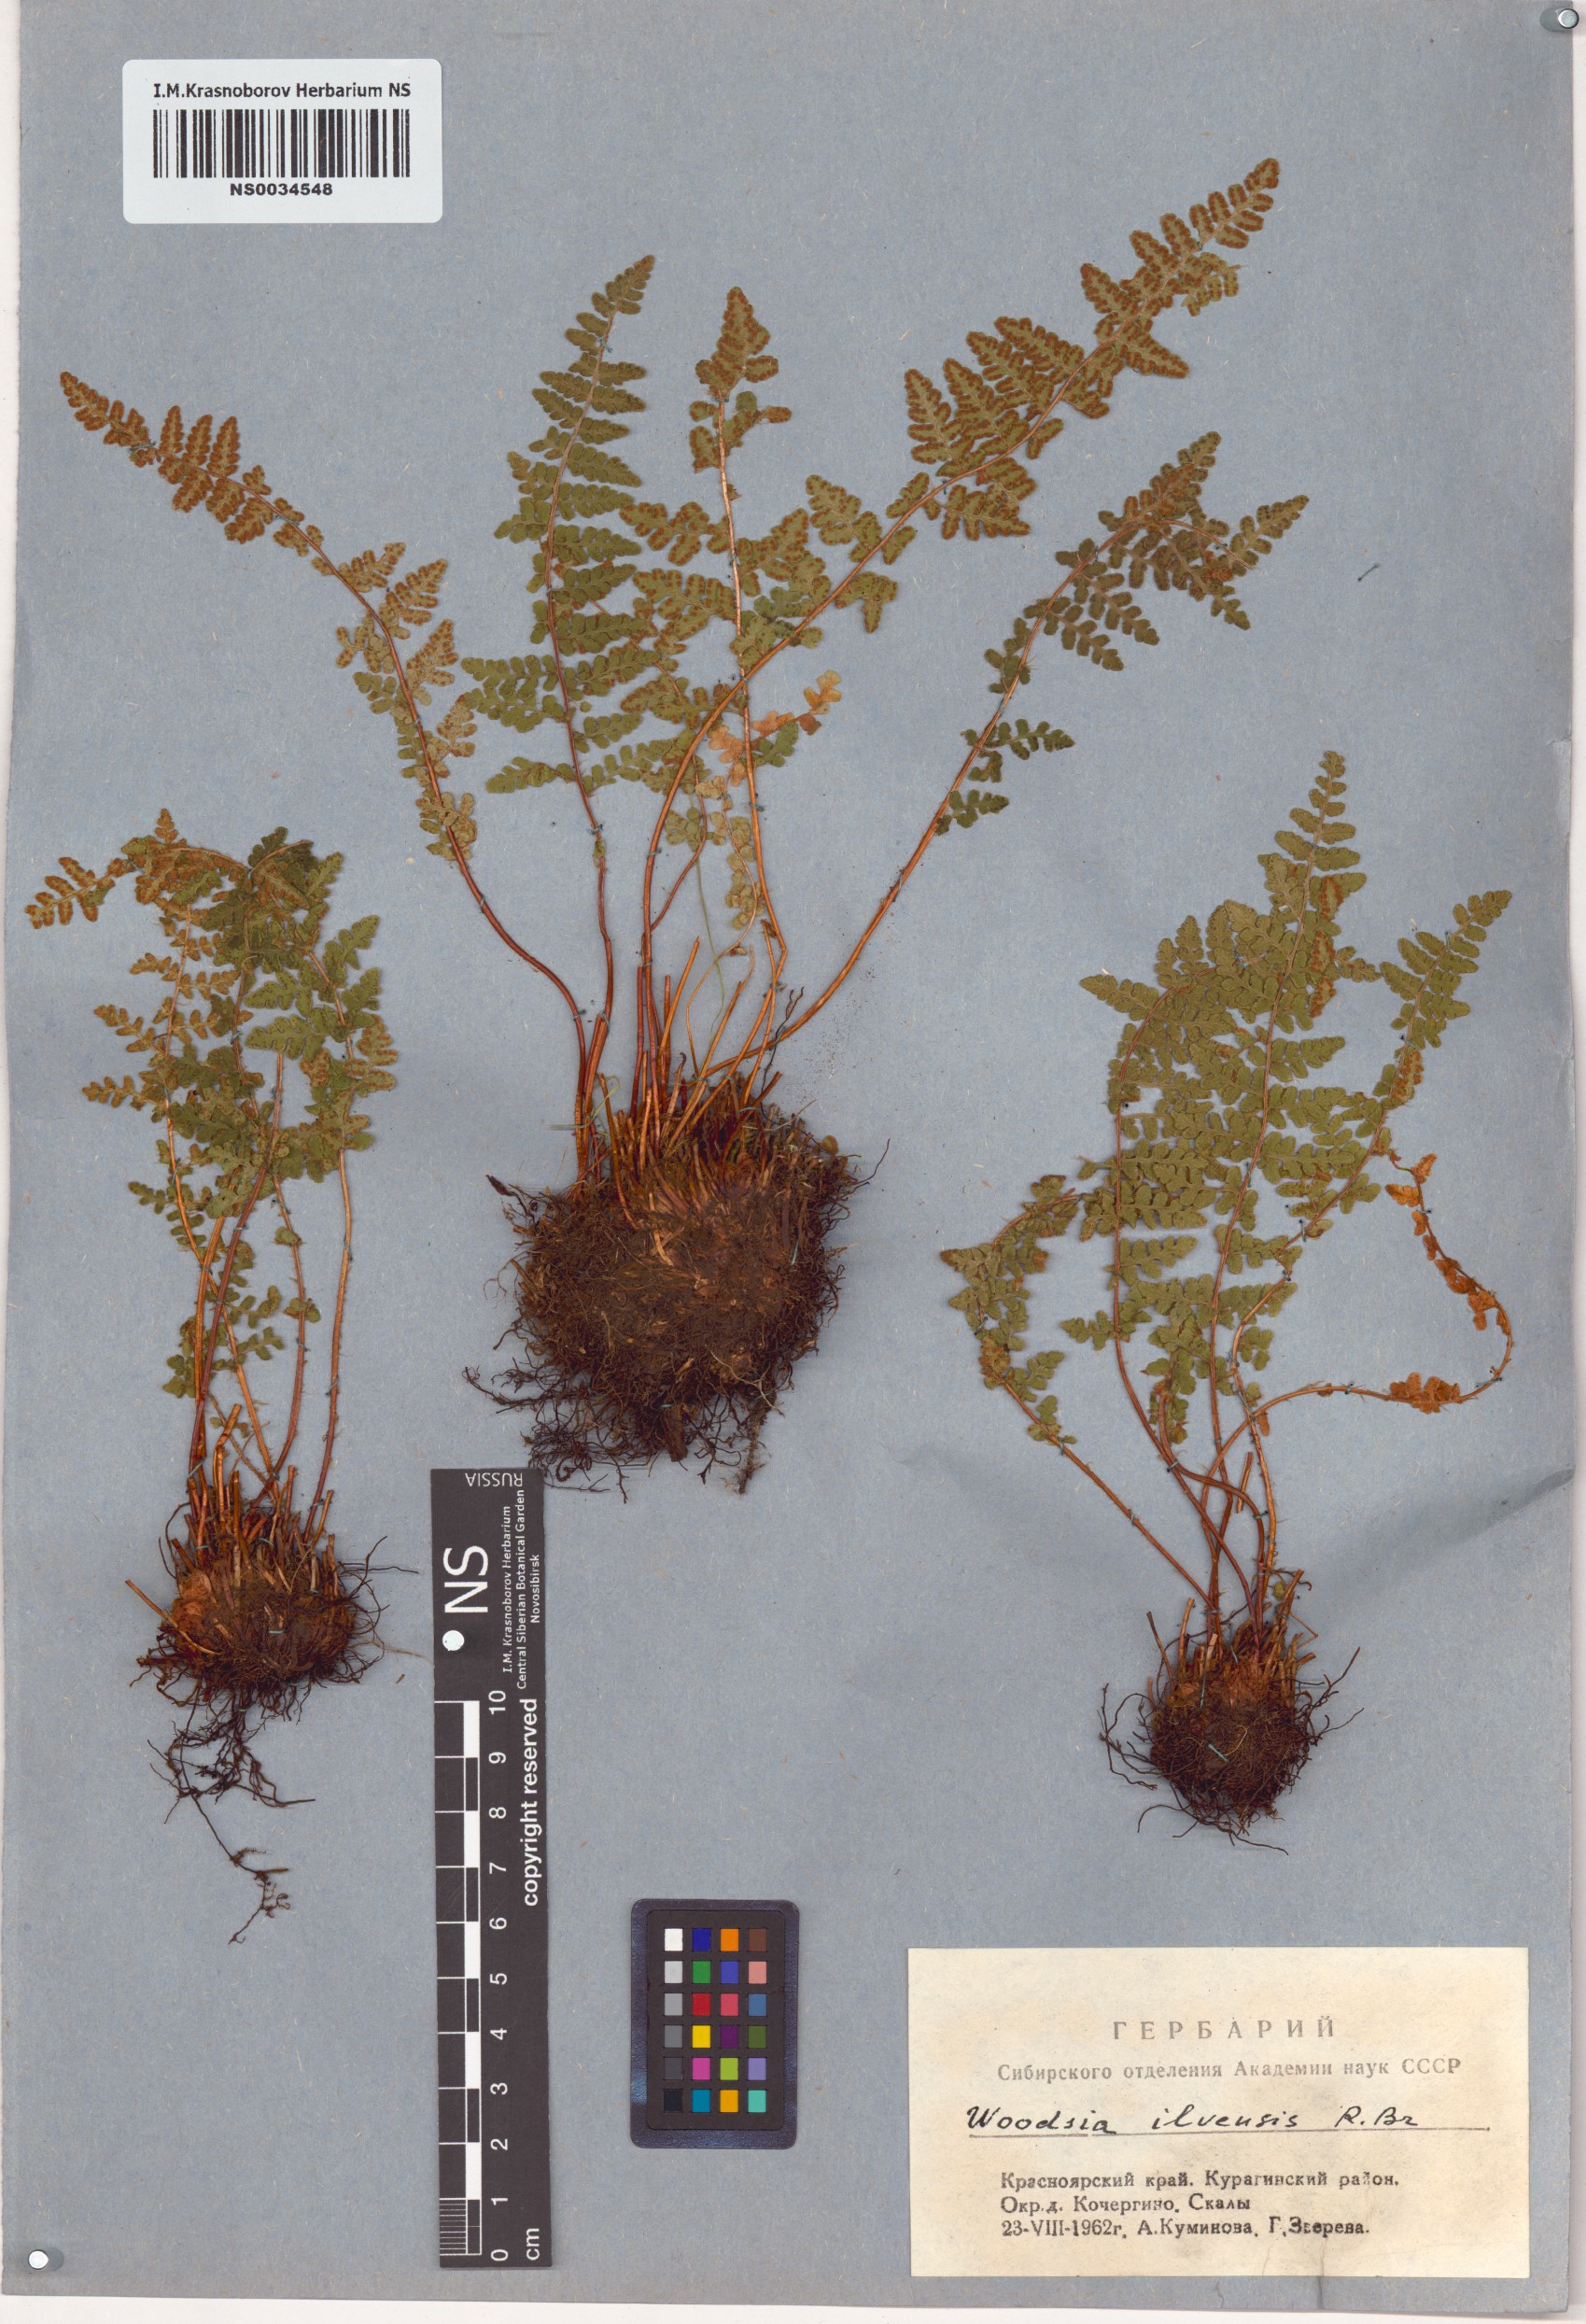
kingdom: Plantae
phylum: Tracheophyta
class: Polypodiopsida
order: Polypodiales
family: Woodsiaceae
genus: Woodsia
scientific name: Woodsia ilvensis
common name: Fragrant woodsia
